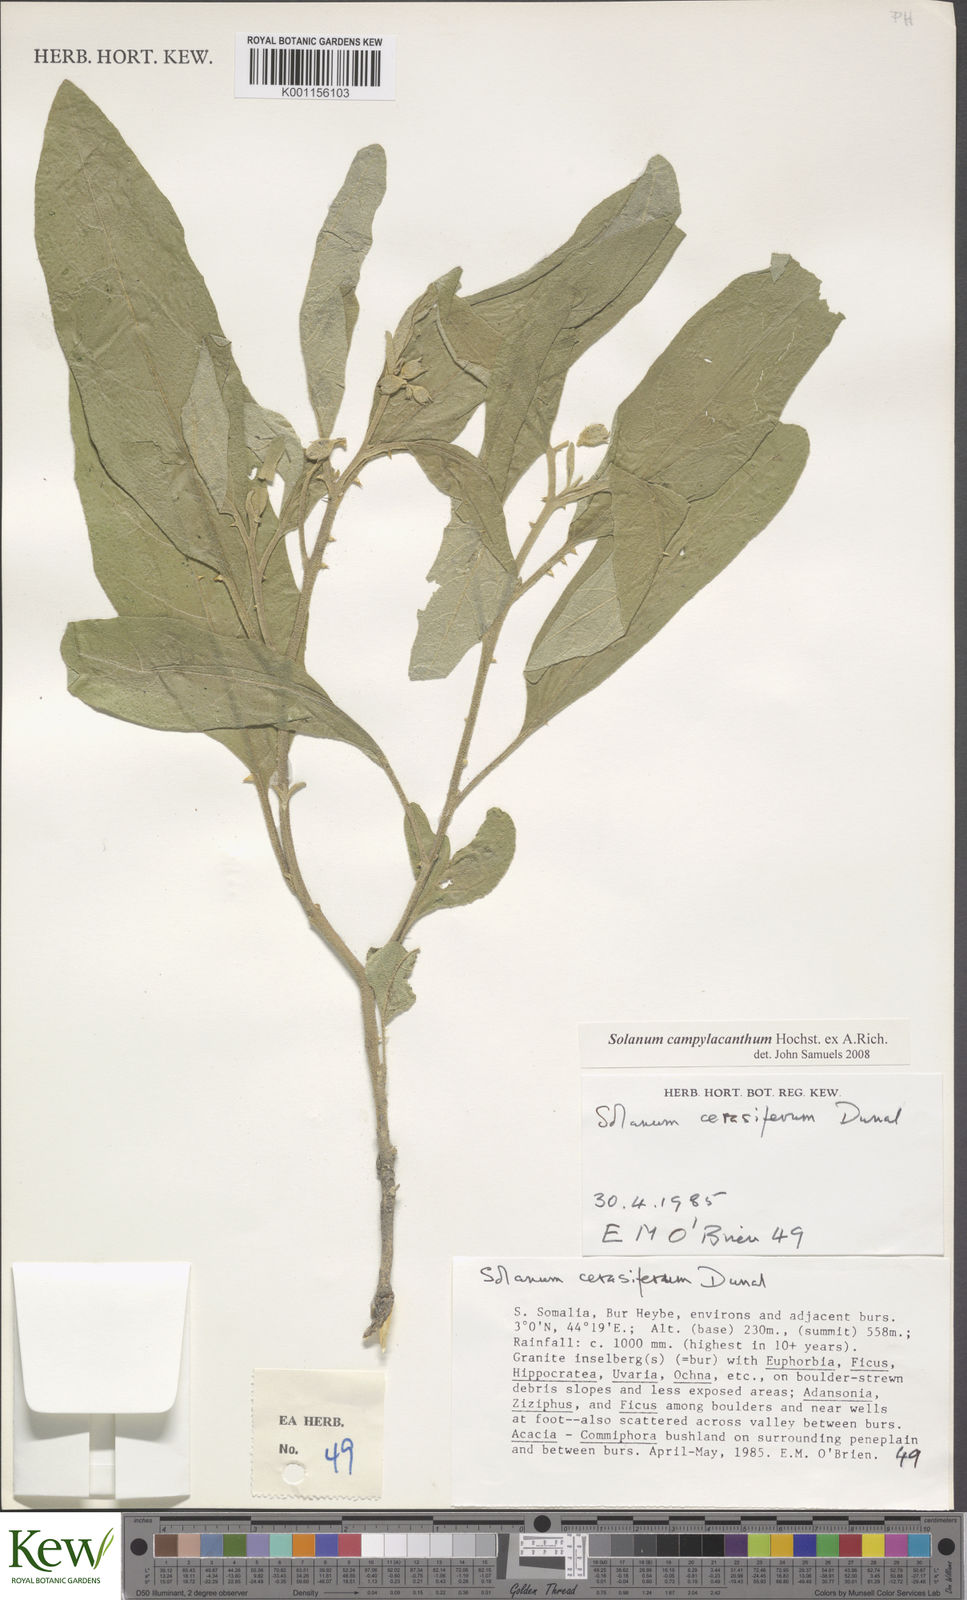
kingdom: Plantae
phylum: Tracheophyta
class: Magnoliopsida
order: Solanales
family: Solanaceae
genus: Solanum
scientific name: Solanum campylacanthum
